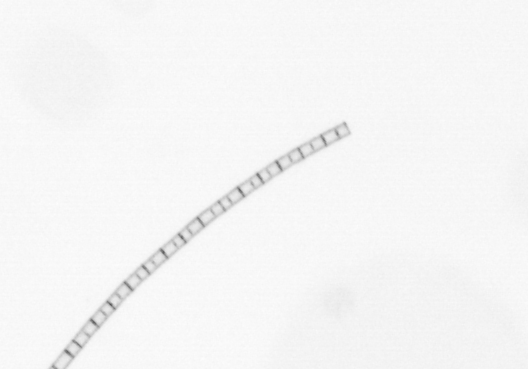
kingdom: Chromista
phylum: Ochrophyta
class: Bacillariophyceae
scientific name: Bacillariophyceae
